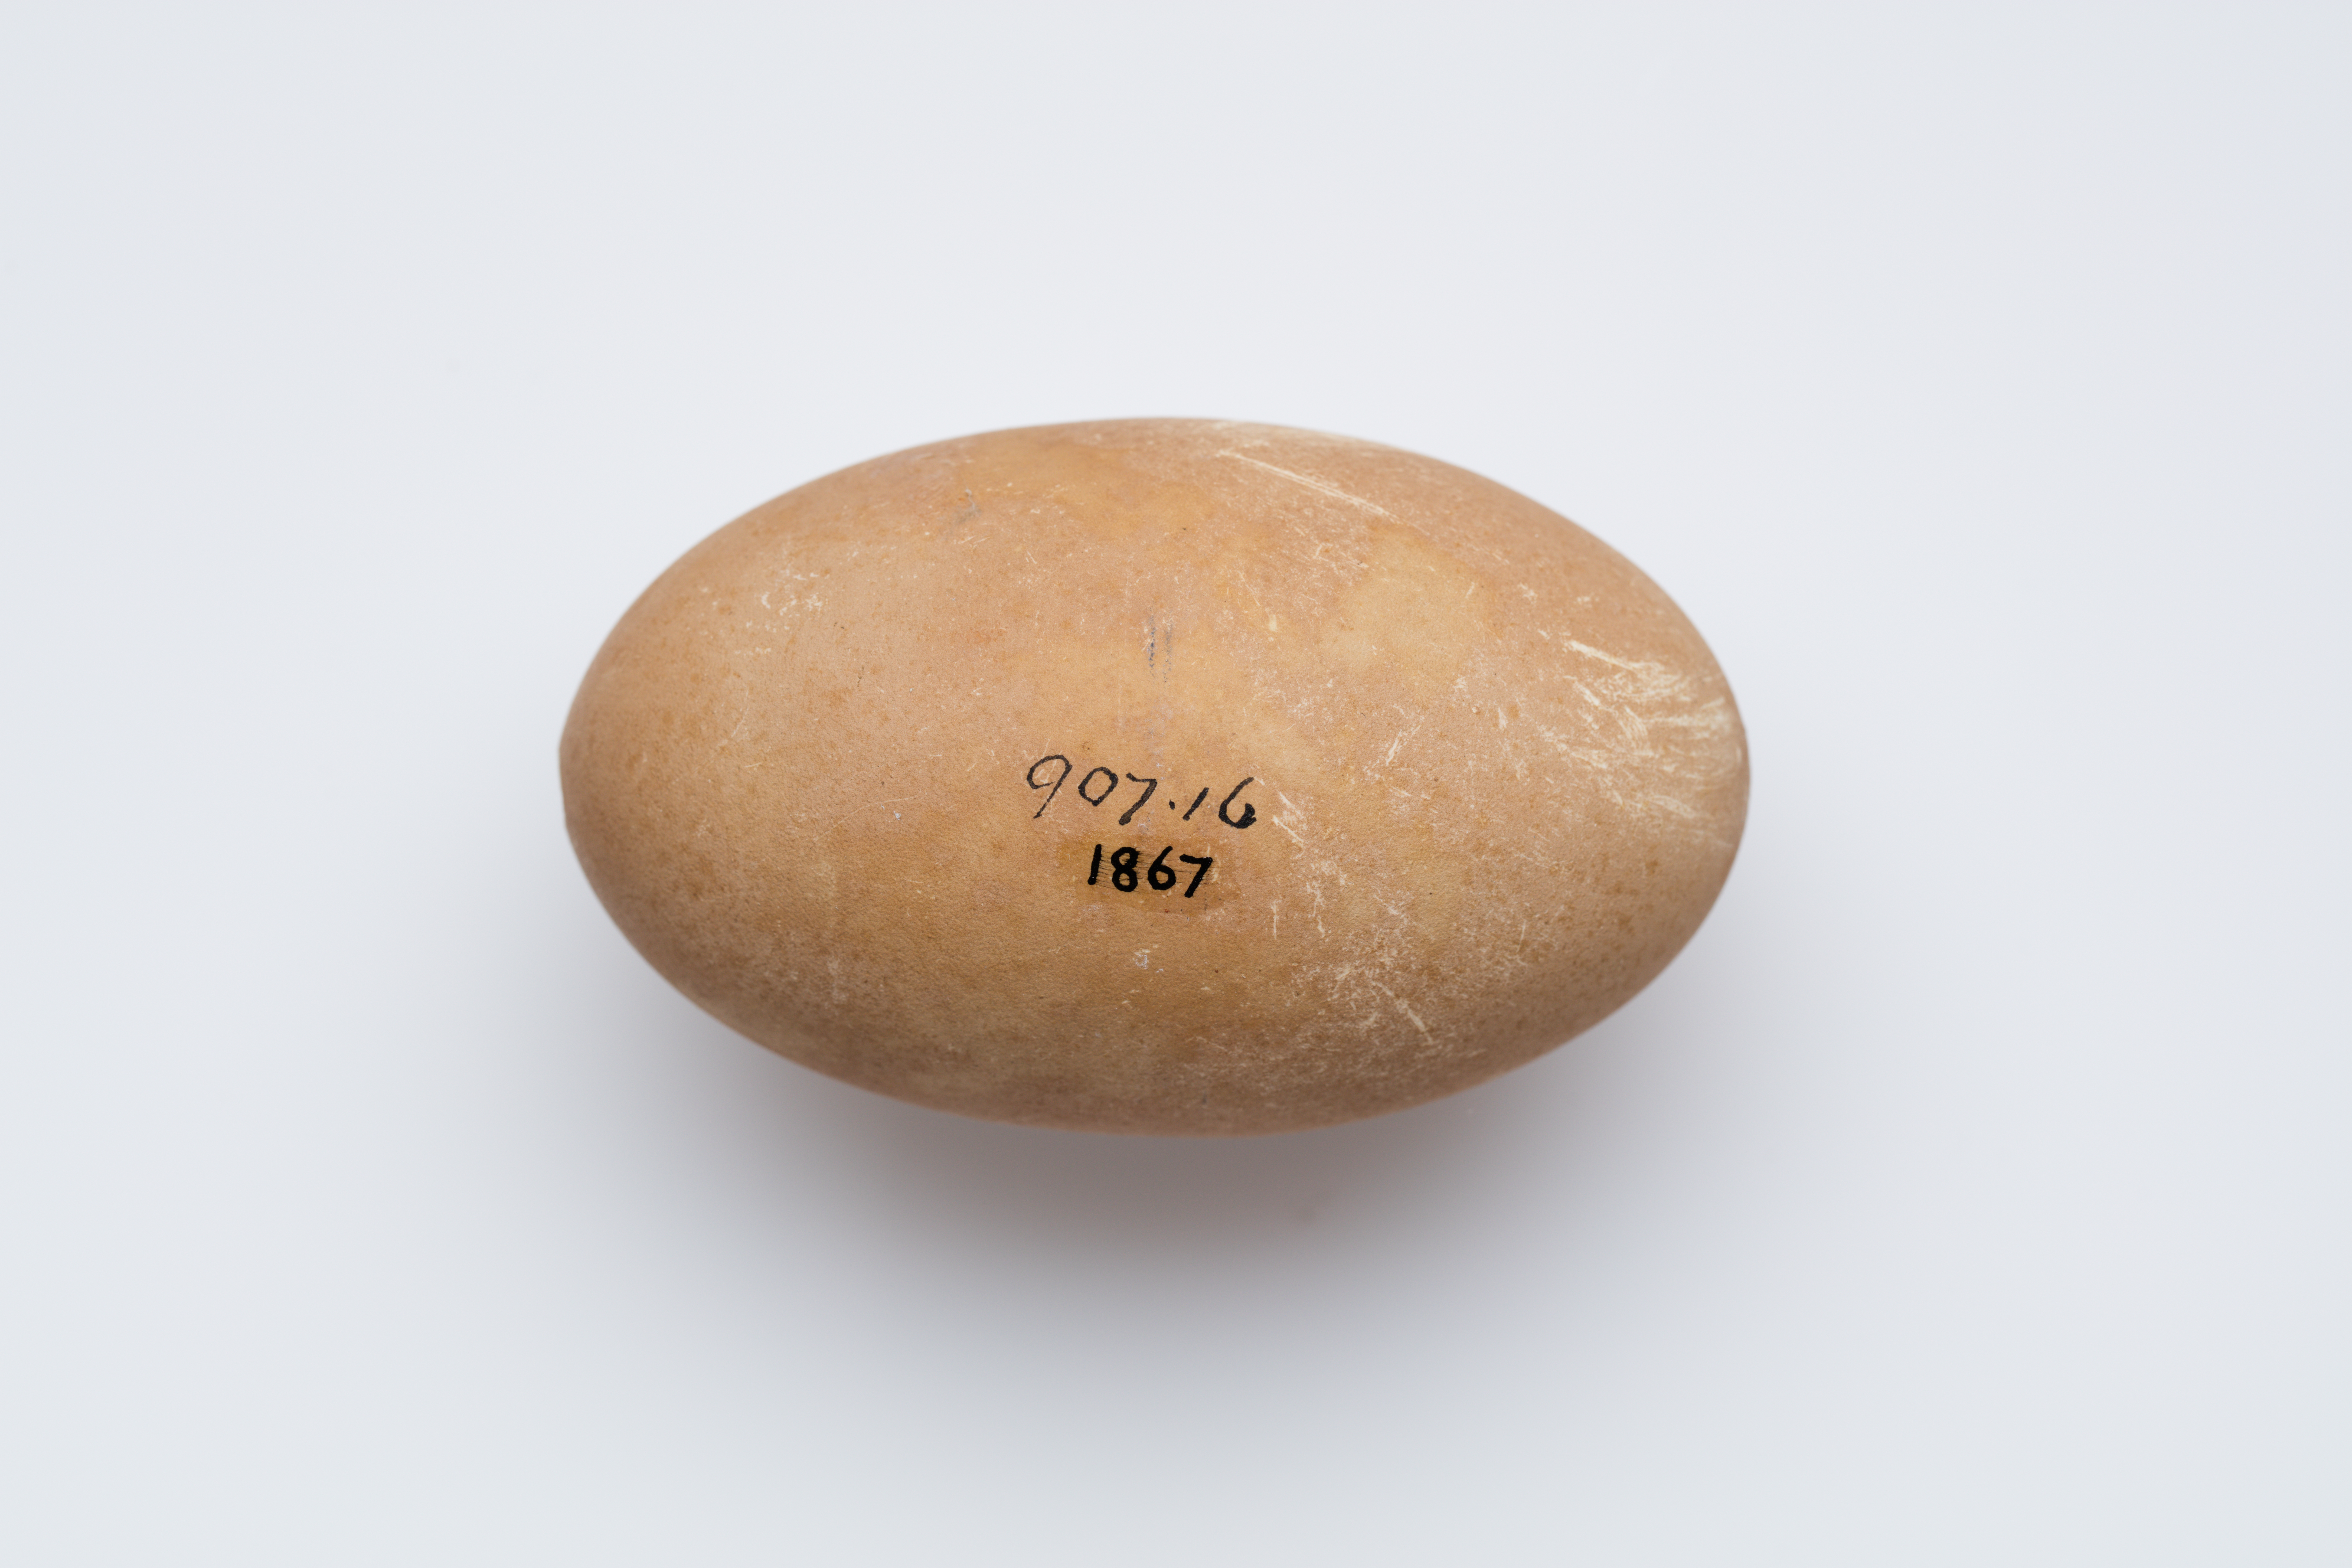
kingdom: Animalia
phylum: Chordata
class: Aves
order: Galliformes
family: Megapodiidae
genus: Megapodius
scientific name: Megapodius pritchardii
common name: Tongan megapode
